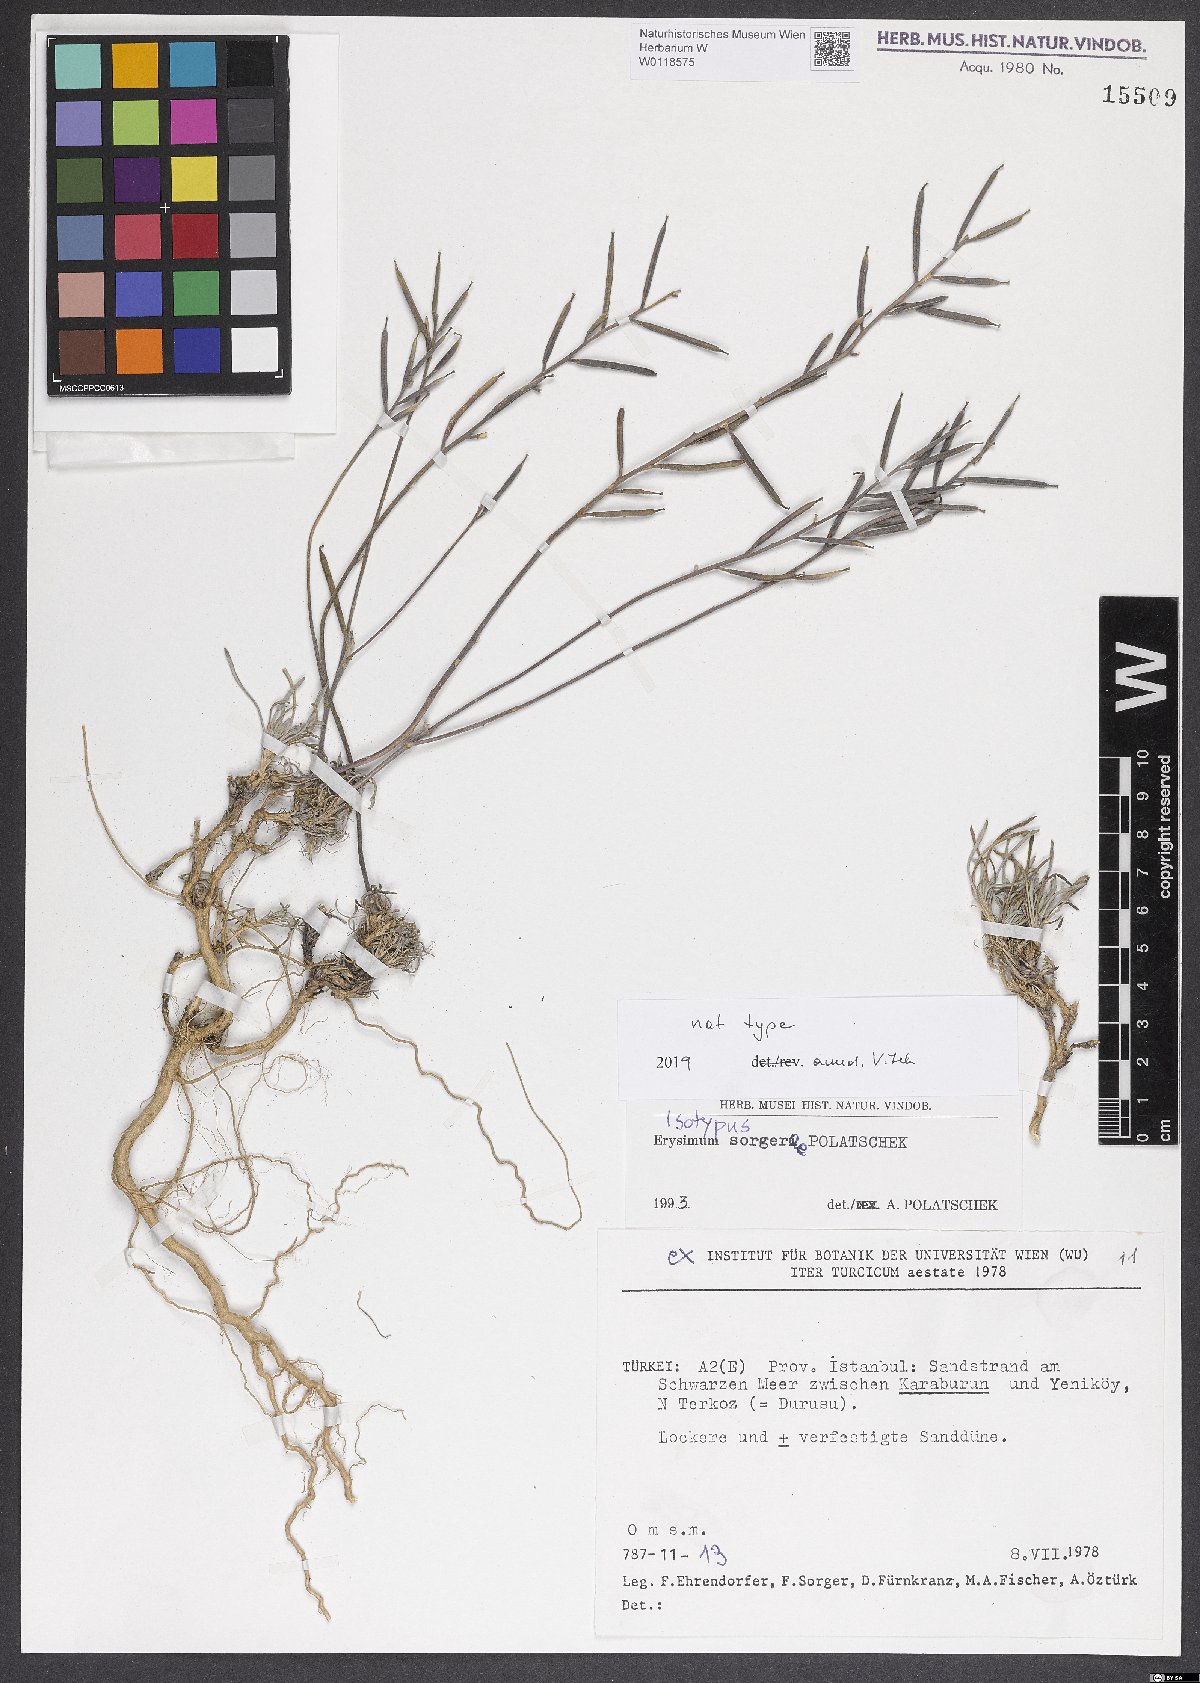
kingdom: Plantae
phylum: Tracheophyta
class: Magnoliopsida
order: Brassicales
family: Brassicaceae
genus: Erysimum
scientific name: Erysimum sorgerae
